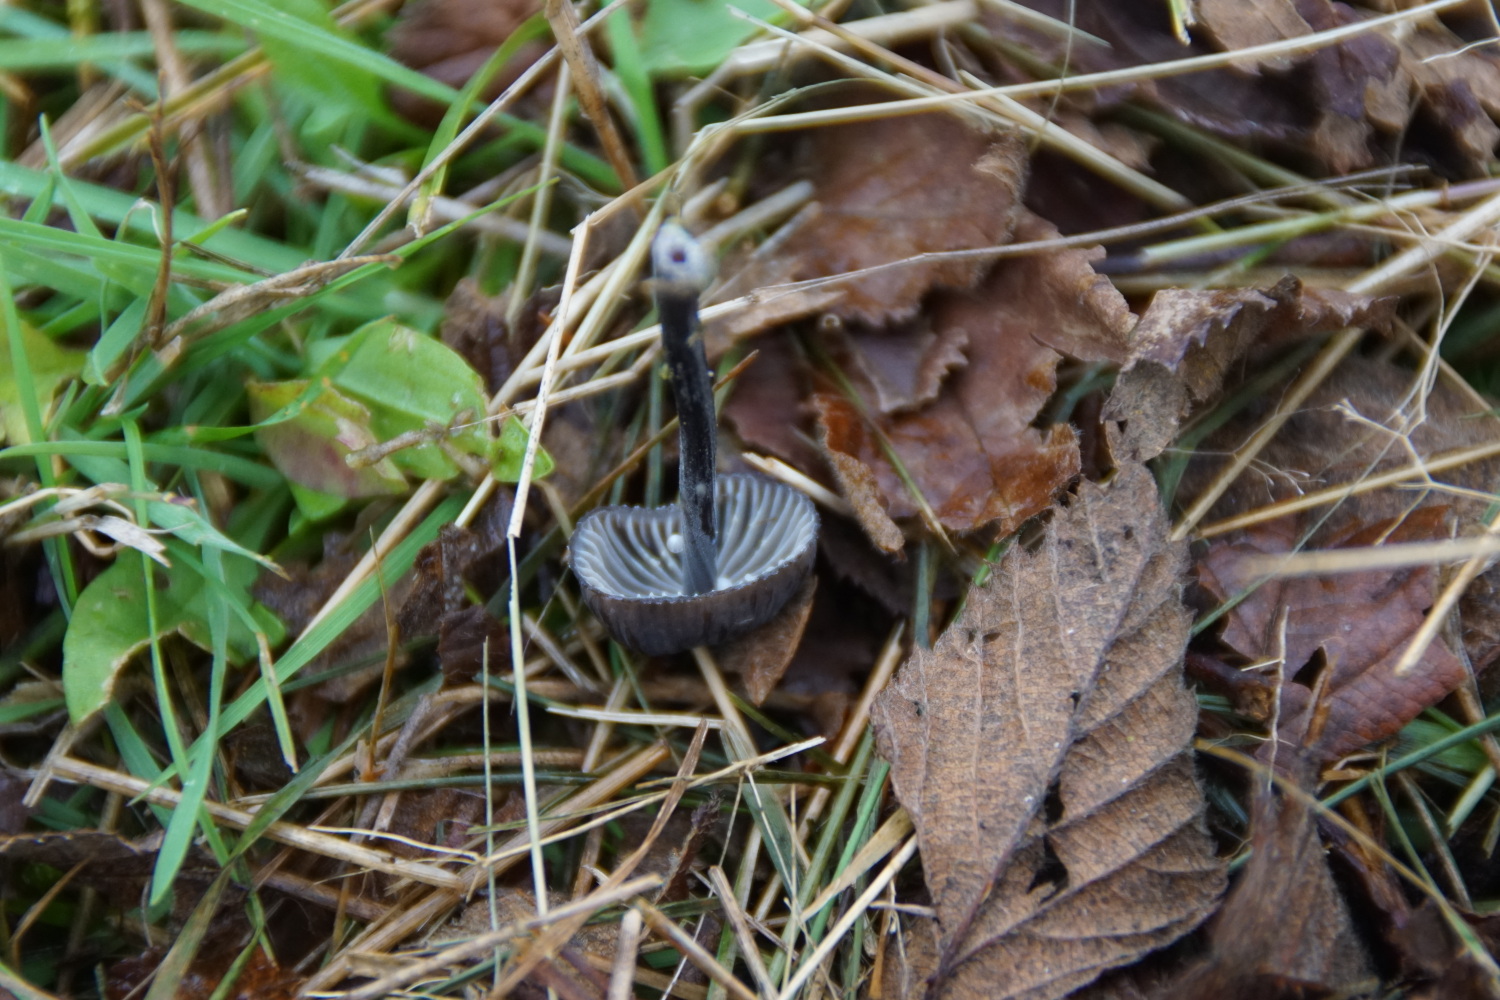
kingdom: Fungi
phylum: Basidiomycota
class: Agaricomycetes
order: Agaricales
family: Mycenaceae
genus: Mycena
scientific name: Mycena galopus
